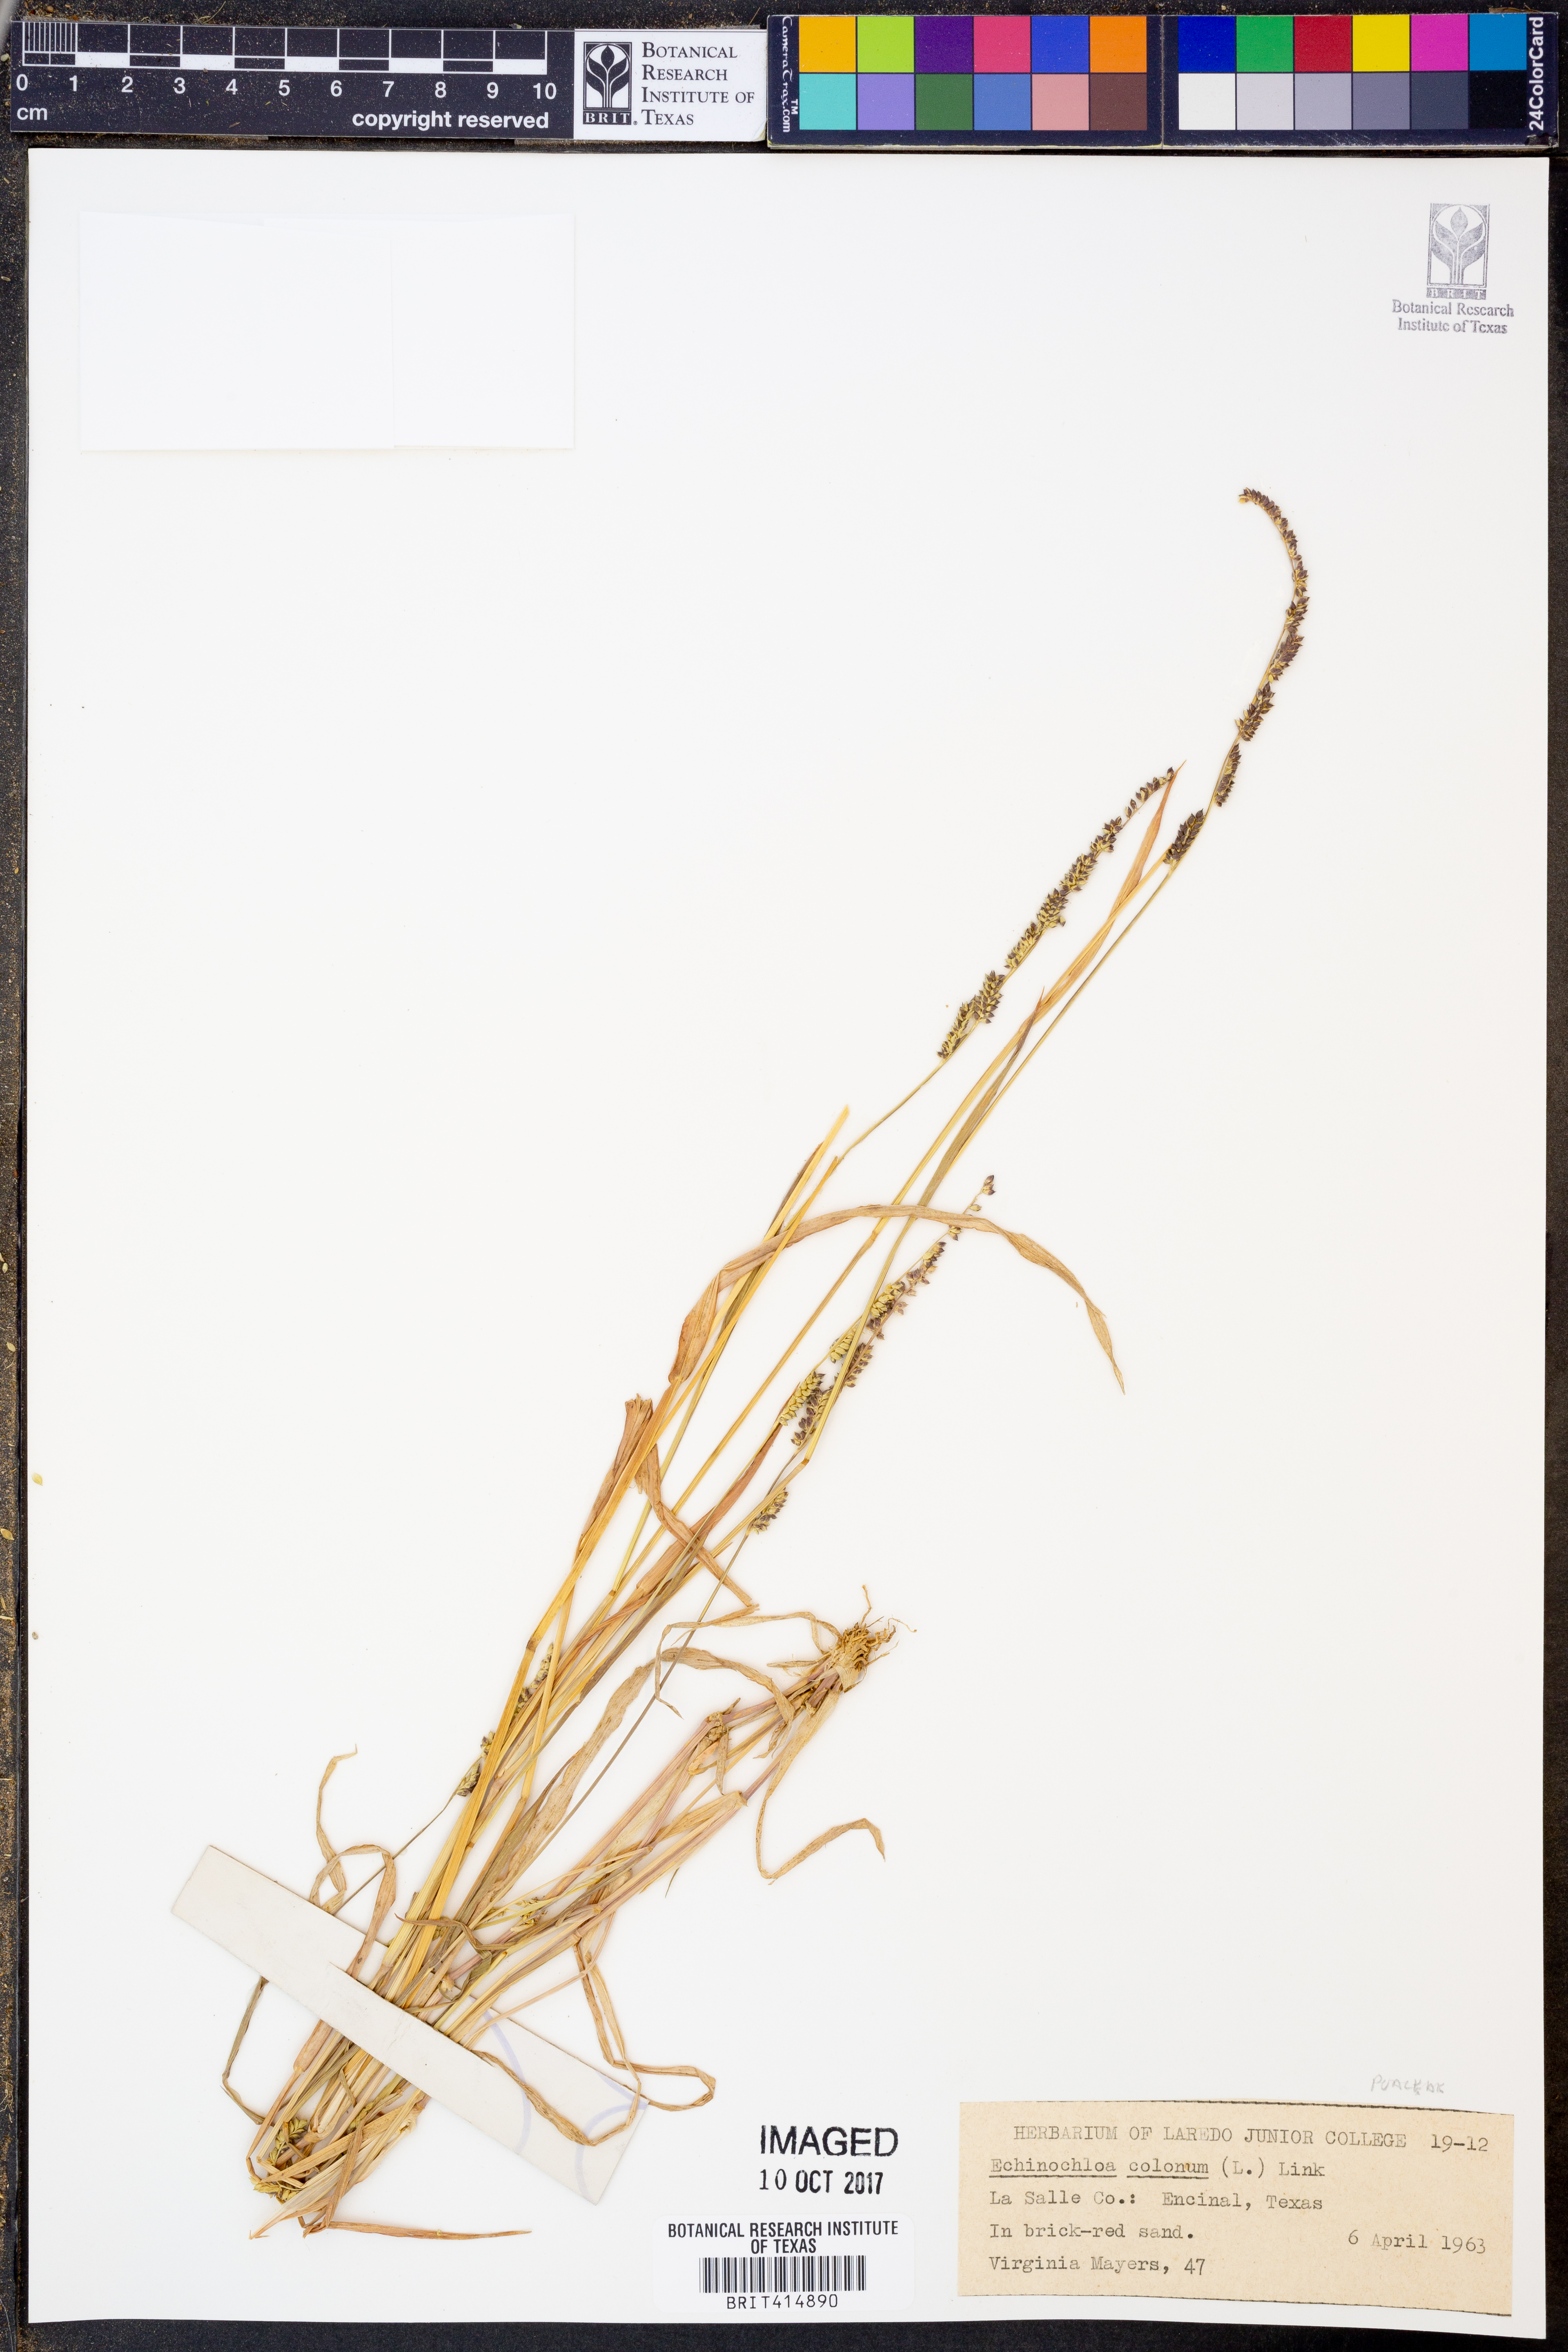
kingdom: Plantae
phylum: Tracheophyta
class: Liliopsida
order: Poales
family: Poaceae
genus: Echinochloa
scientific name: Echinochloa colonum
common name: Jungle rice
